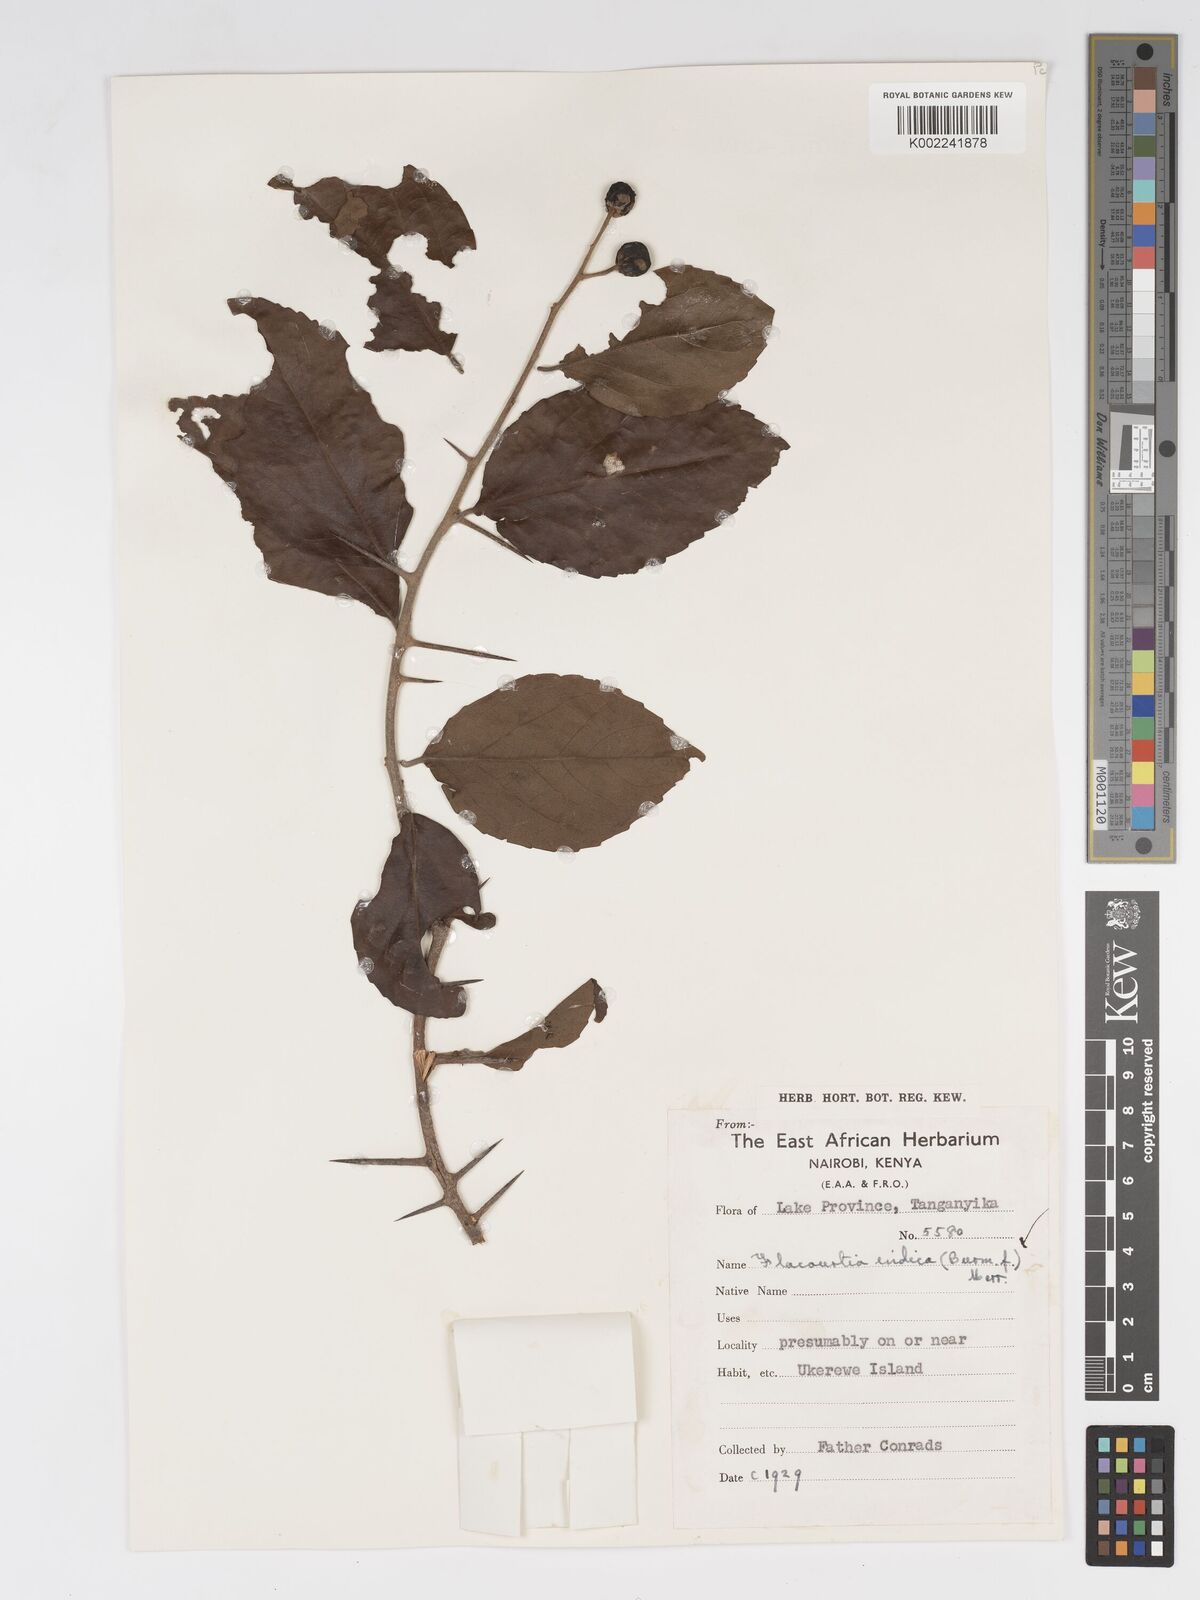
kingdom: Plantae
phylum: Tracheophyta
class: Magnoliopsida
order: Malpighiales
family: Salicaceae
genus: Flacourtia
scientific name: Flacourtia indica
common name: Governor's plum
